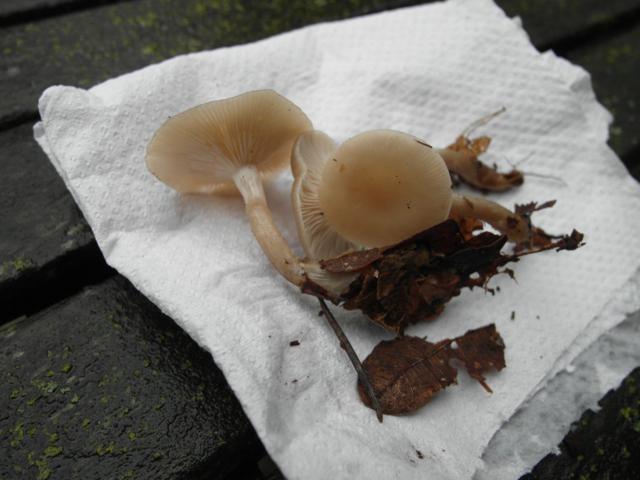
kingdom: Fungi
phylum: Basidiomycota
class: Agaricomycetes
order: Agaricales
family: Tricholomataceae
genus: Clitocybe
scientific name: Clitocybe
